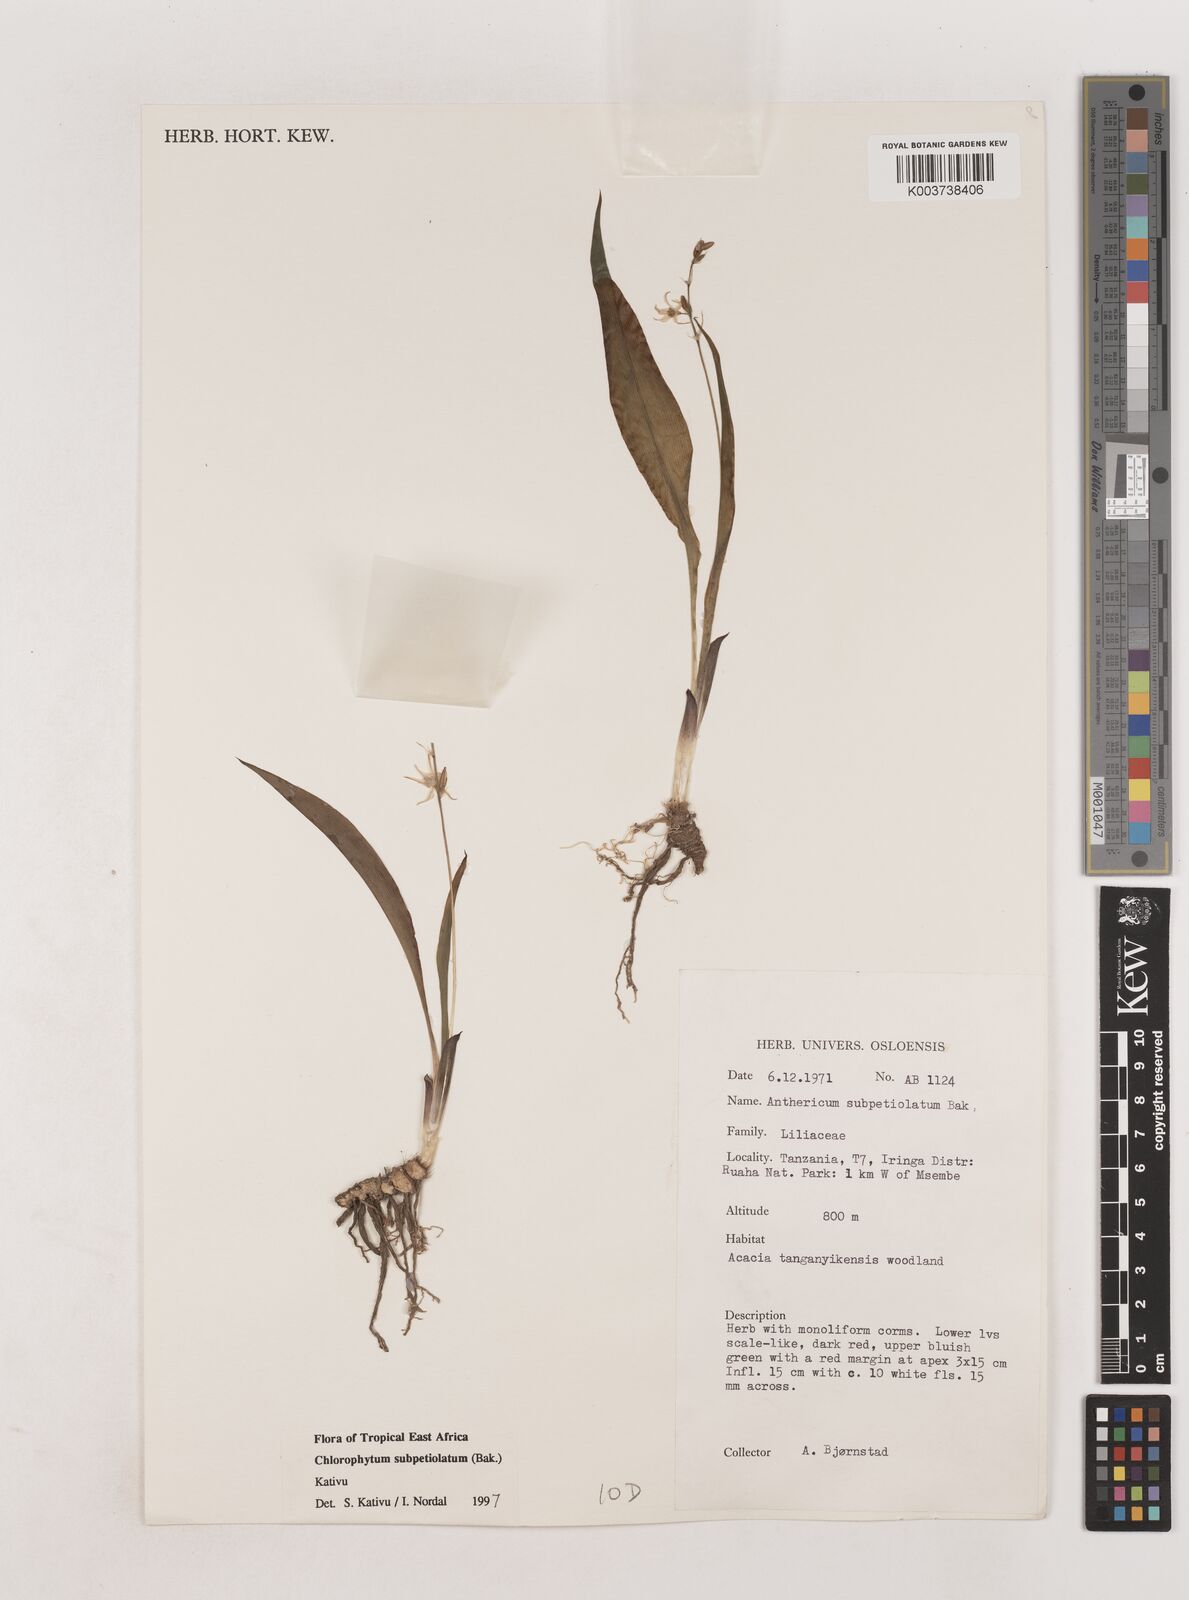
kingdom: Plantae
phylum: Tracheophyta
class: Liliopsida
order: Asparagales
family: Asparagaceae
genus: Chlorophytum
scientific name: Chlorophytum subpetiolatum
